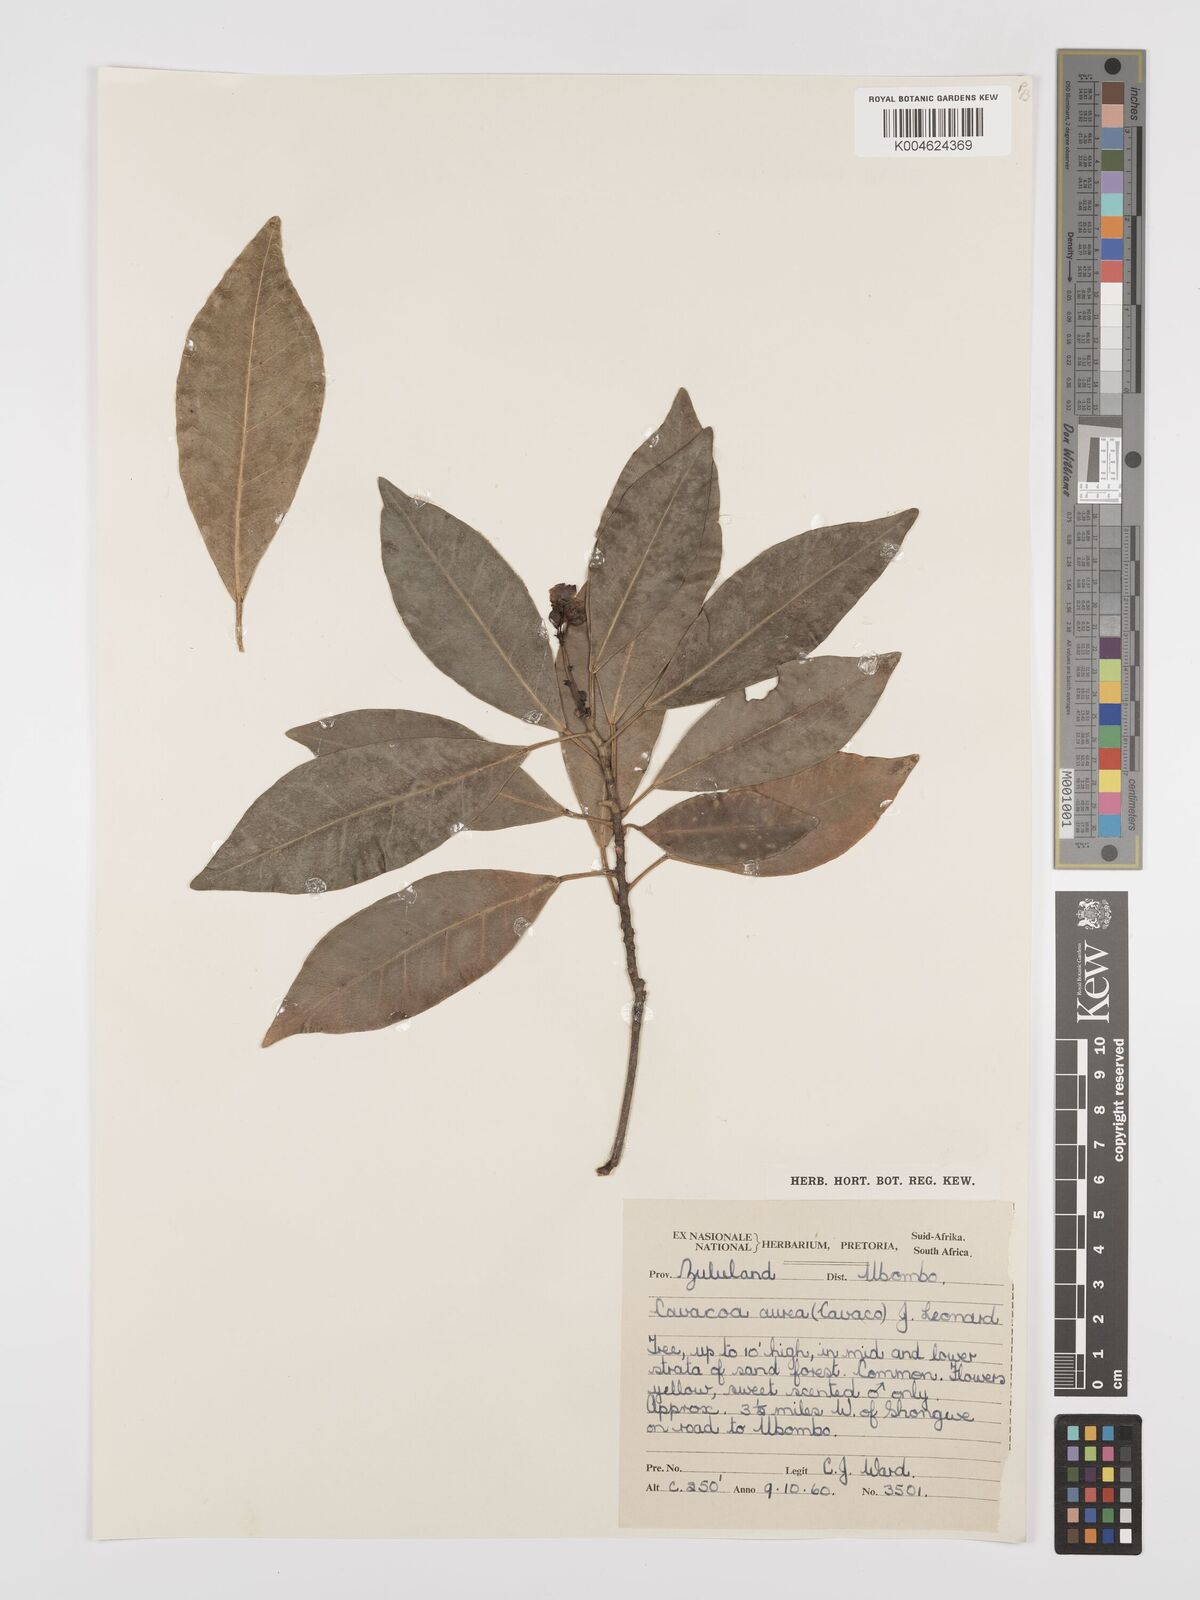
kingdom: Plantae
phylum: Tracheophyta
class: Magnoliopsida
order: Malpighiales
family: Euphorbiaceae
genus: Cavacoa
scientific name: Cavacoa aurea
